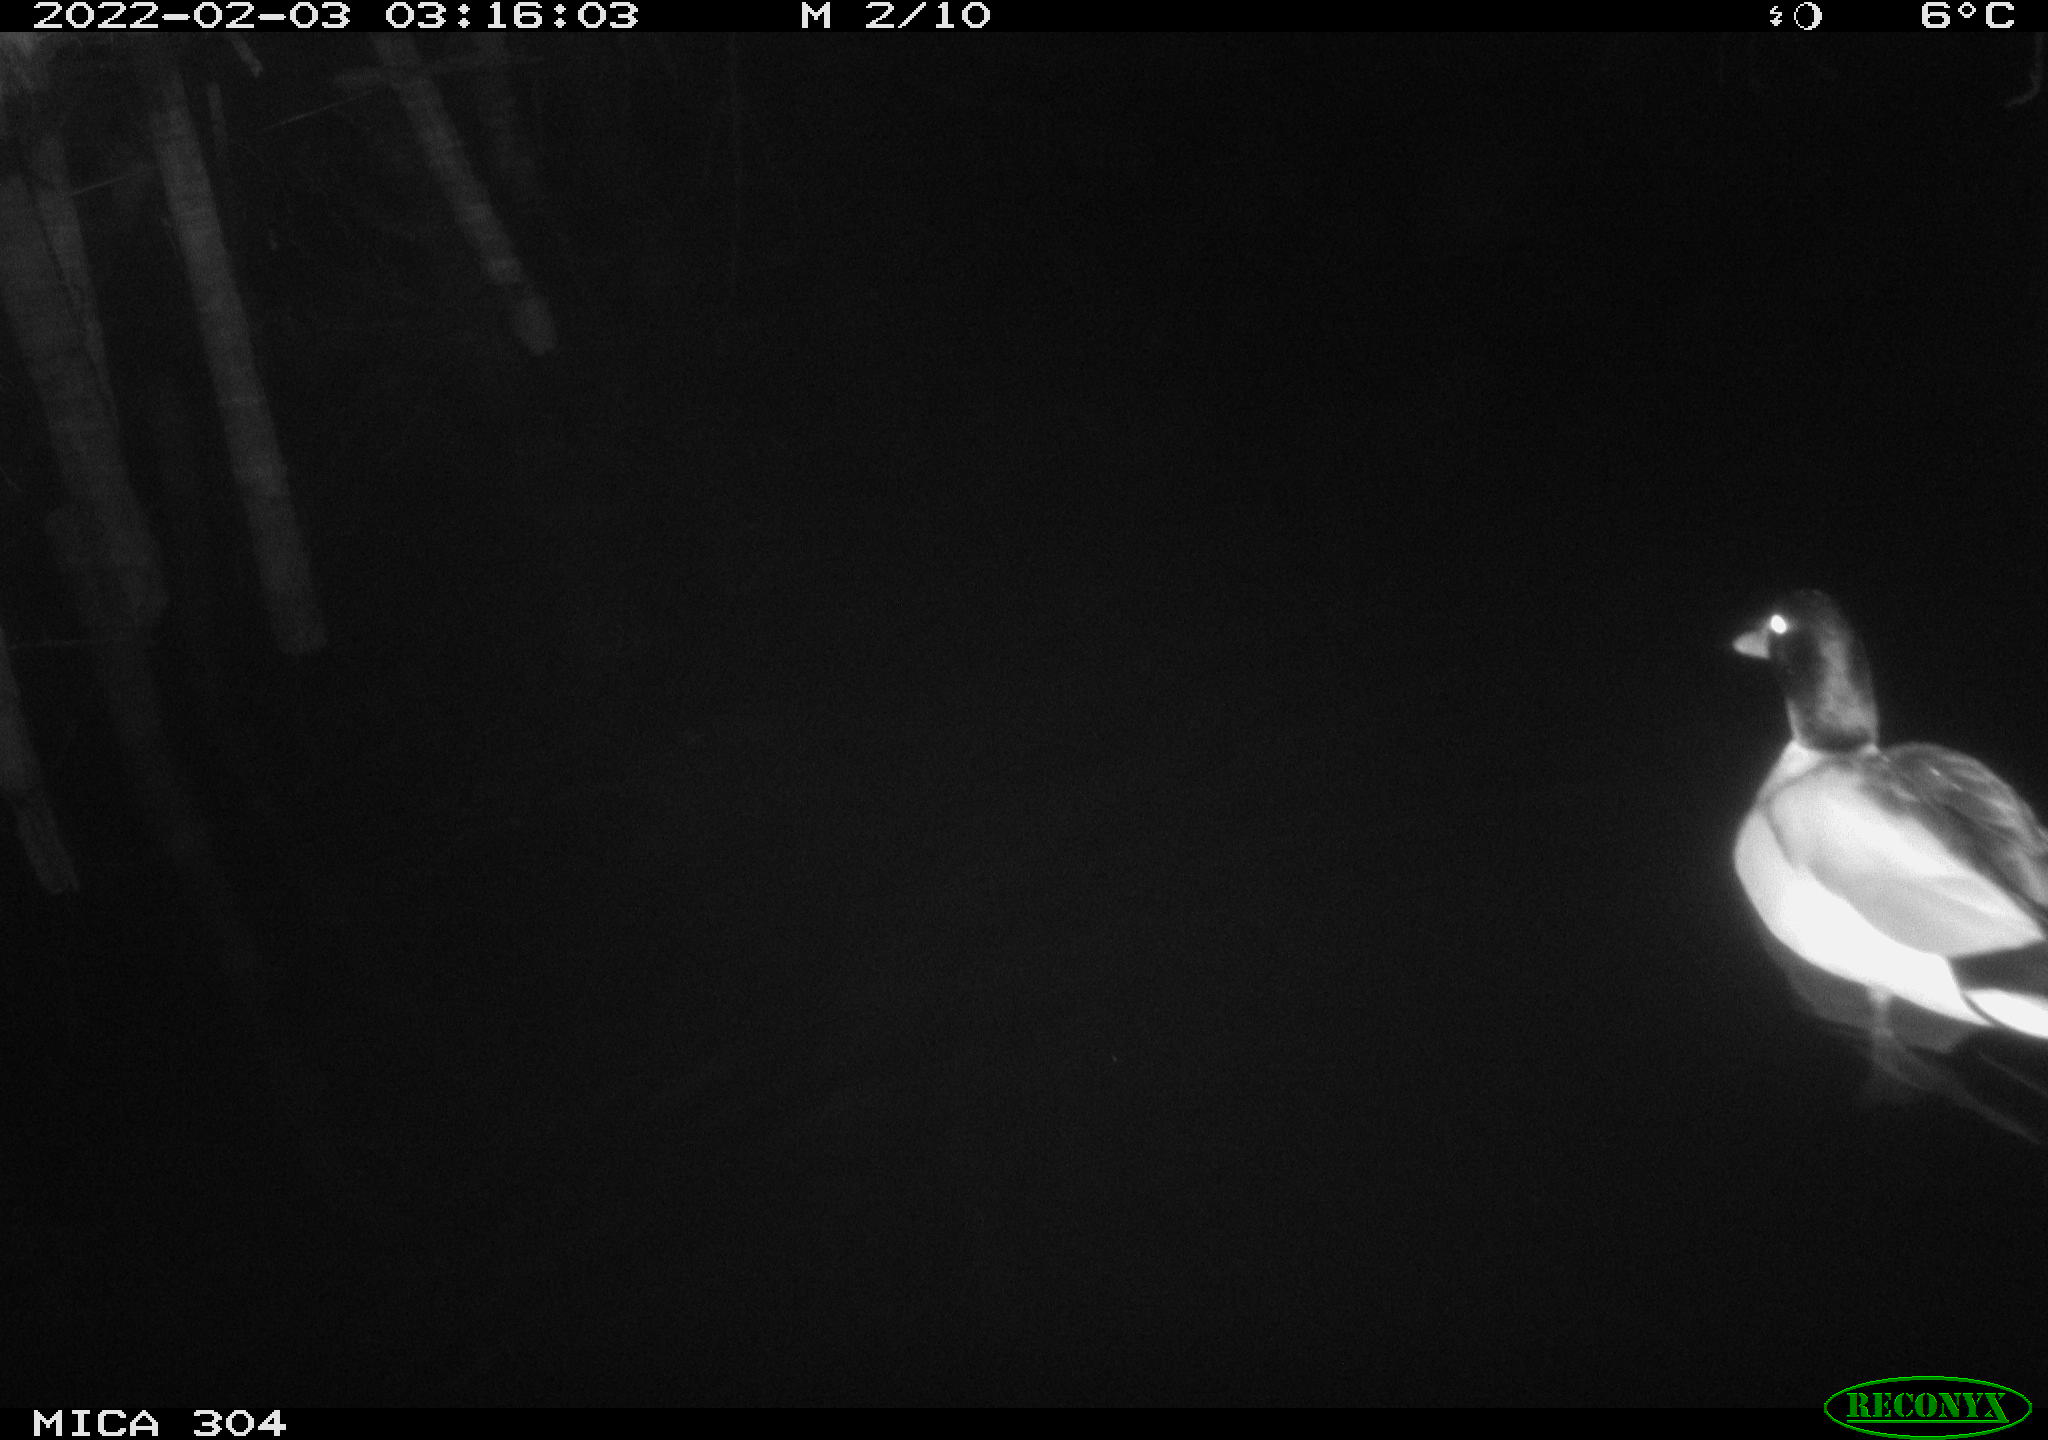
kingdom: Animalia
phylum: Chordata
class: Aves
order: Anseriformes
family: Anatidae
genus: Anas
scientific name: Anas
